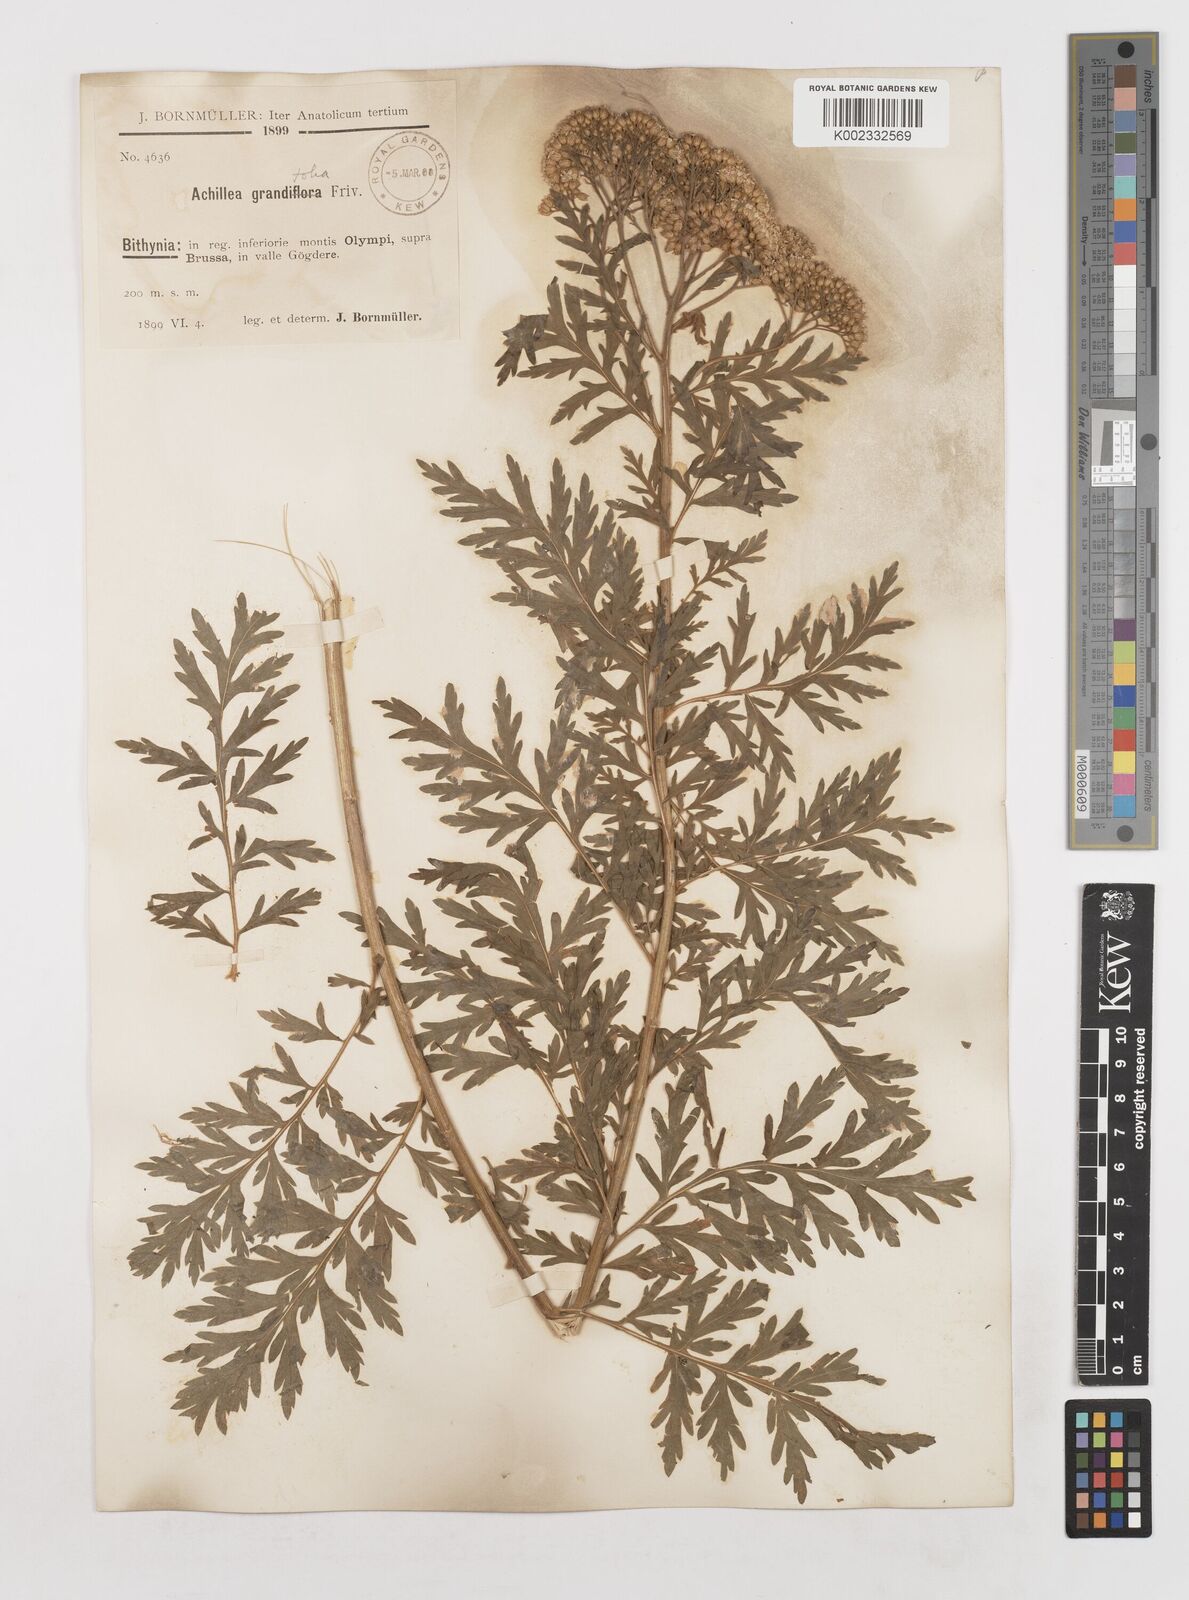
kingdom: Plantae
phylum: Tracheophyta
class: Magnoliopsida
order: Asterales
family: Asteraceae
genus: Achillea
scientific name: Achillea grandifolia
